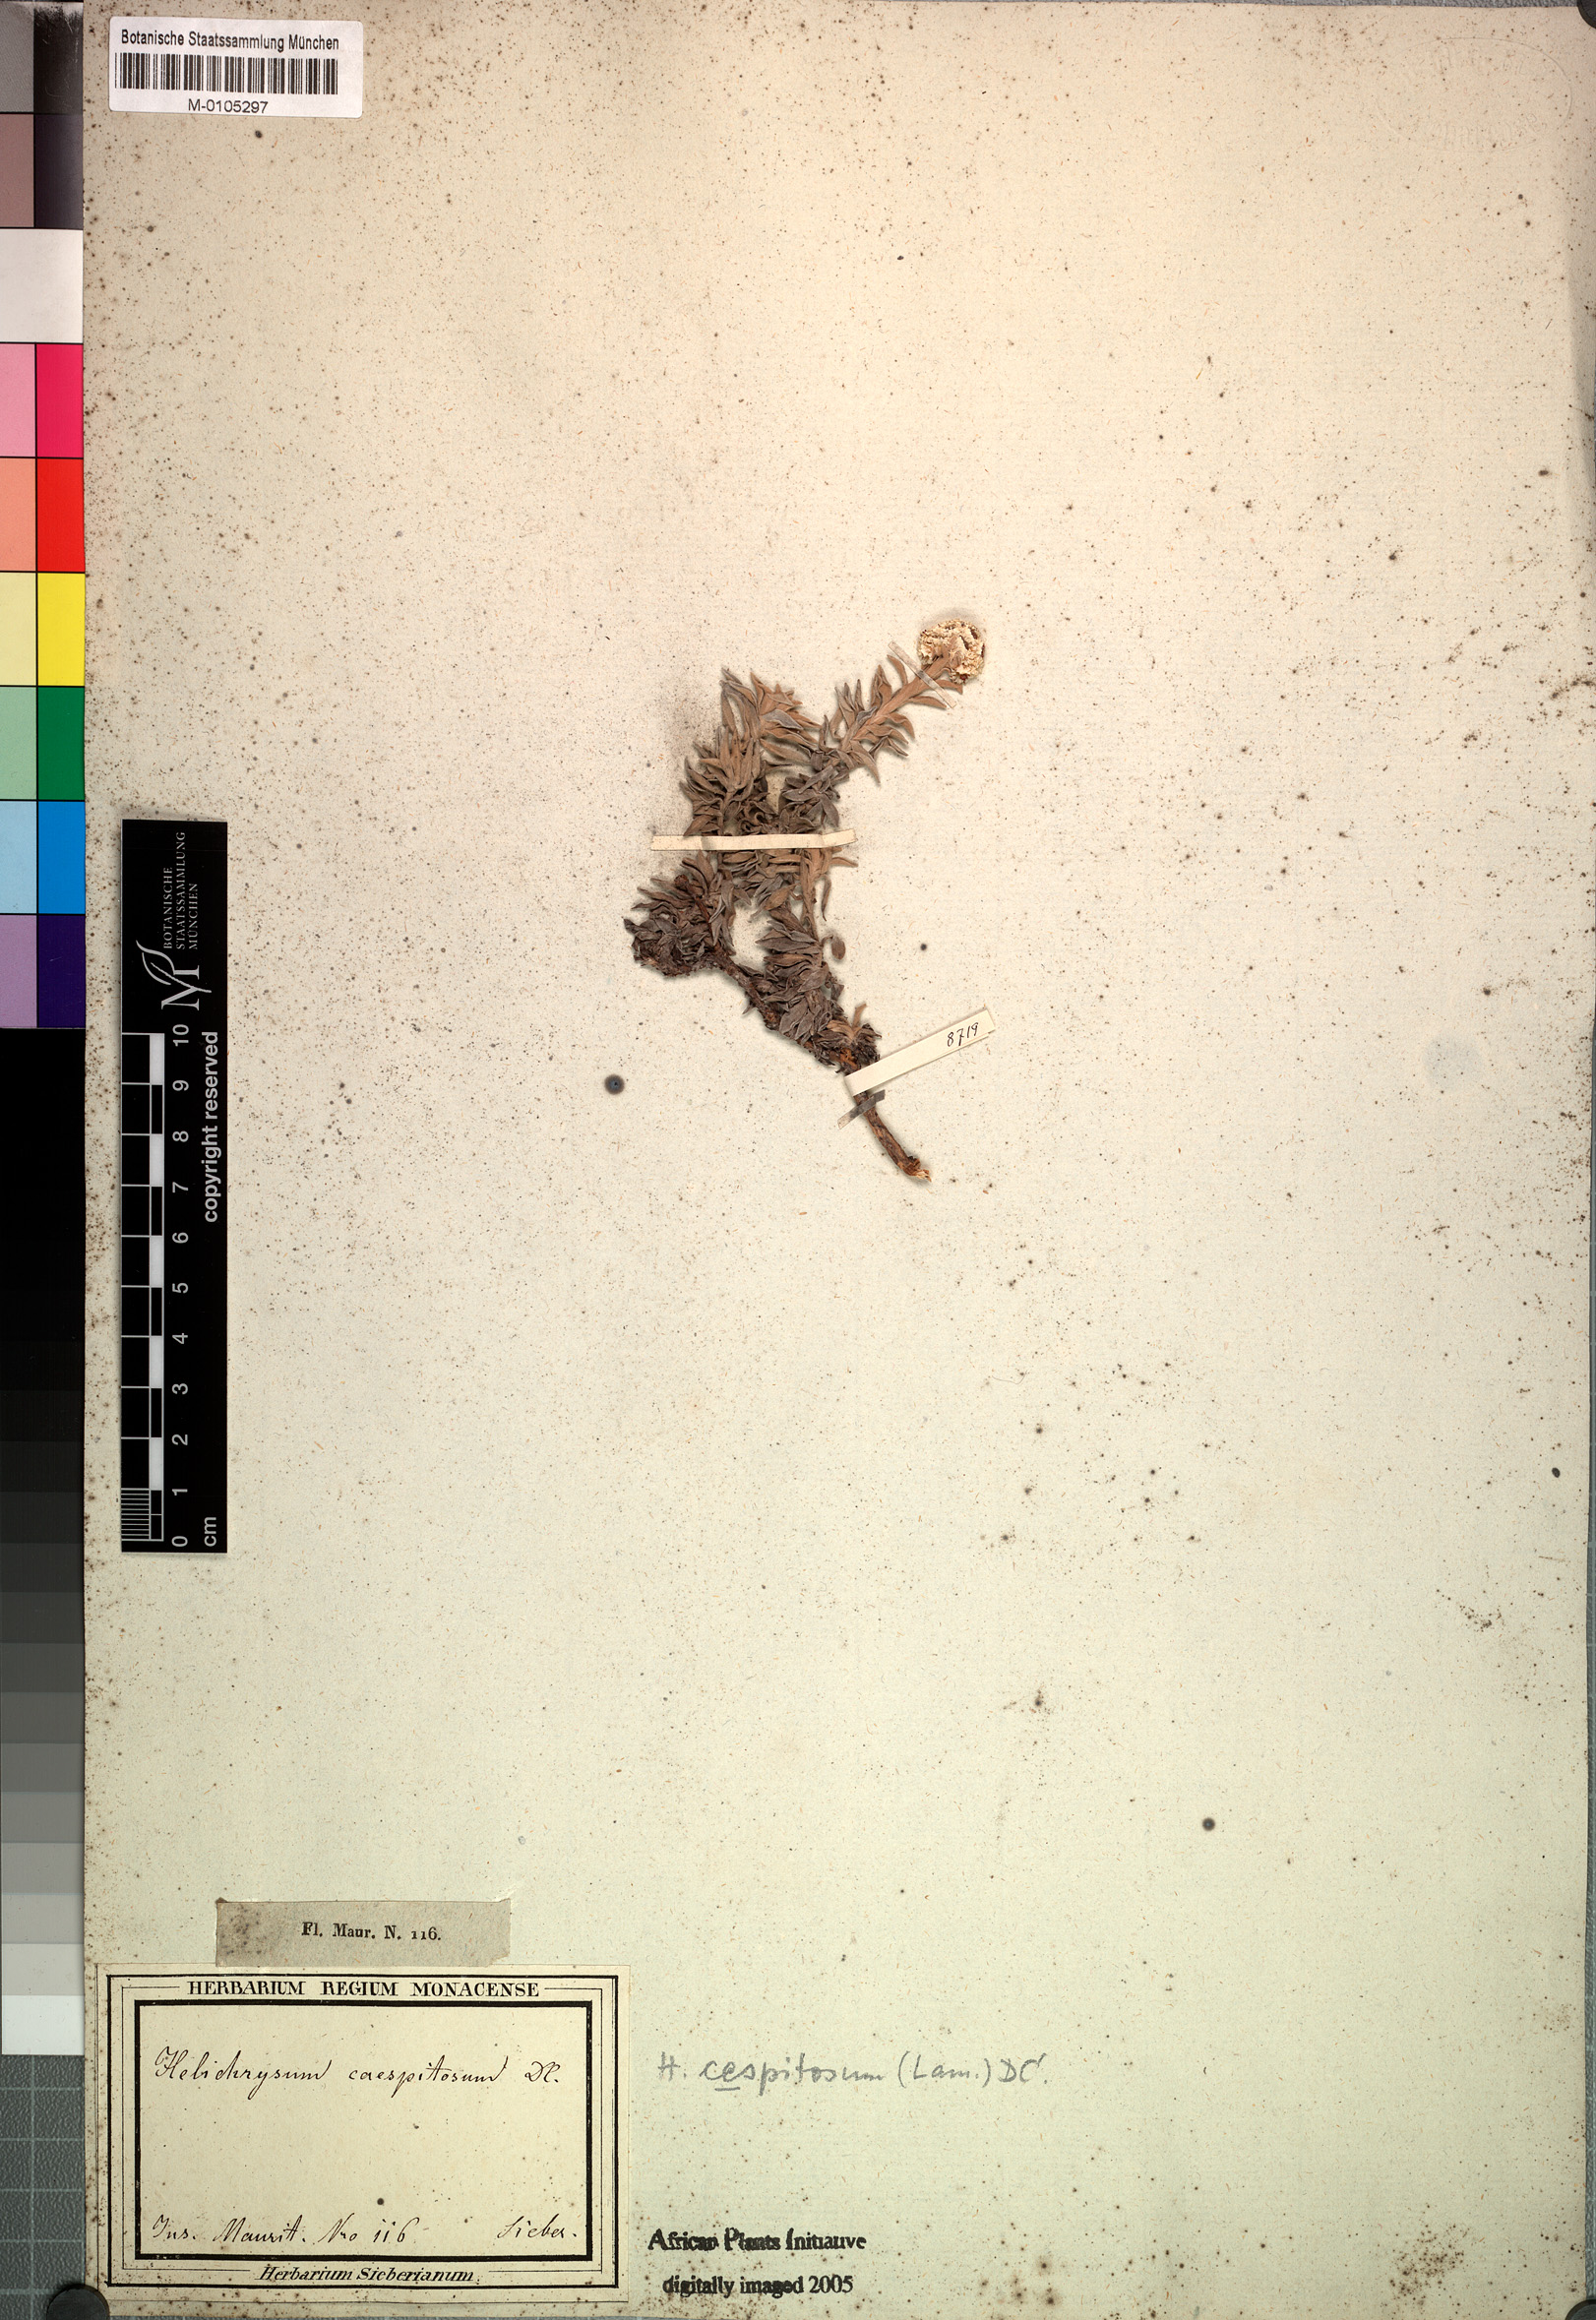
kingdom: Plantae
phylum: Tracheophyta
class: Magnoliopsida
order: Asterales
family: Asteraceae
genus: Helichrysum
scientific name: Helichrysum cespitosum
